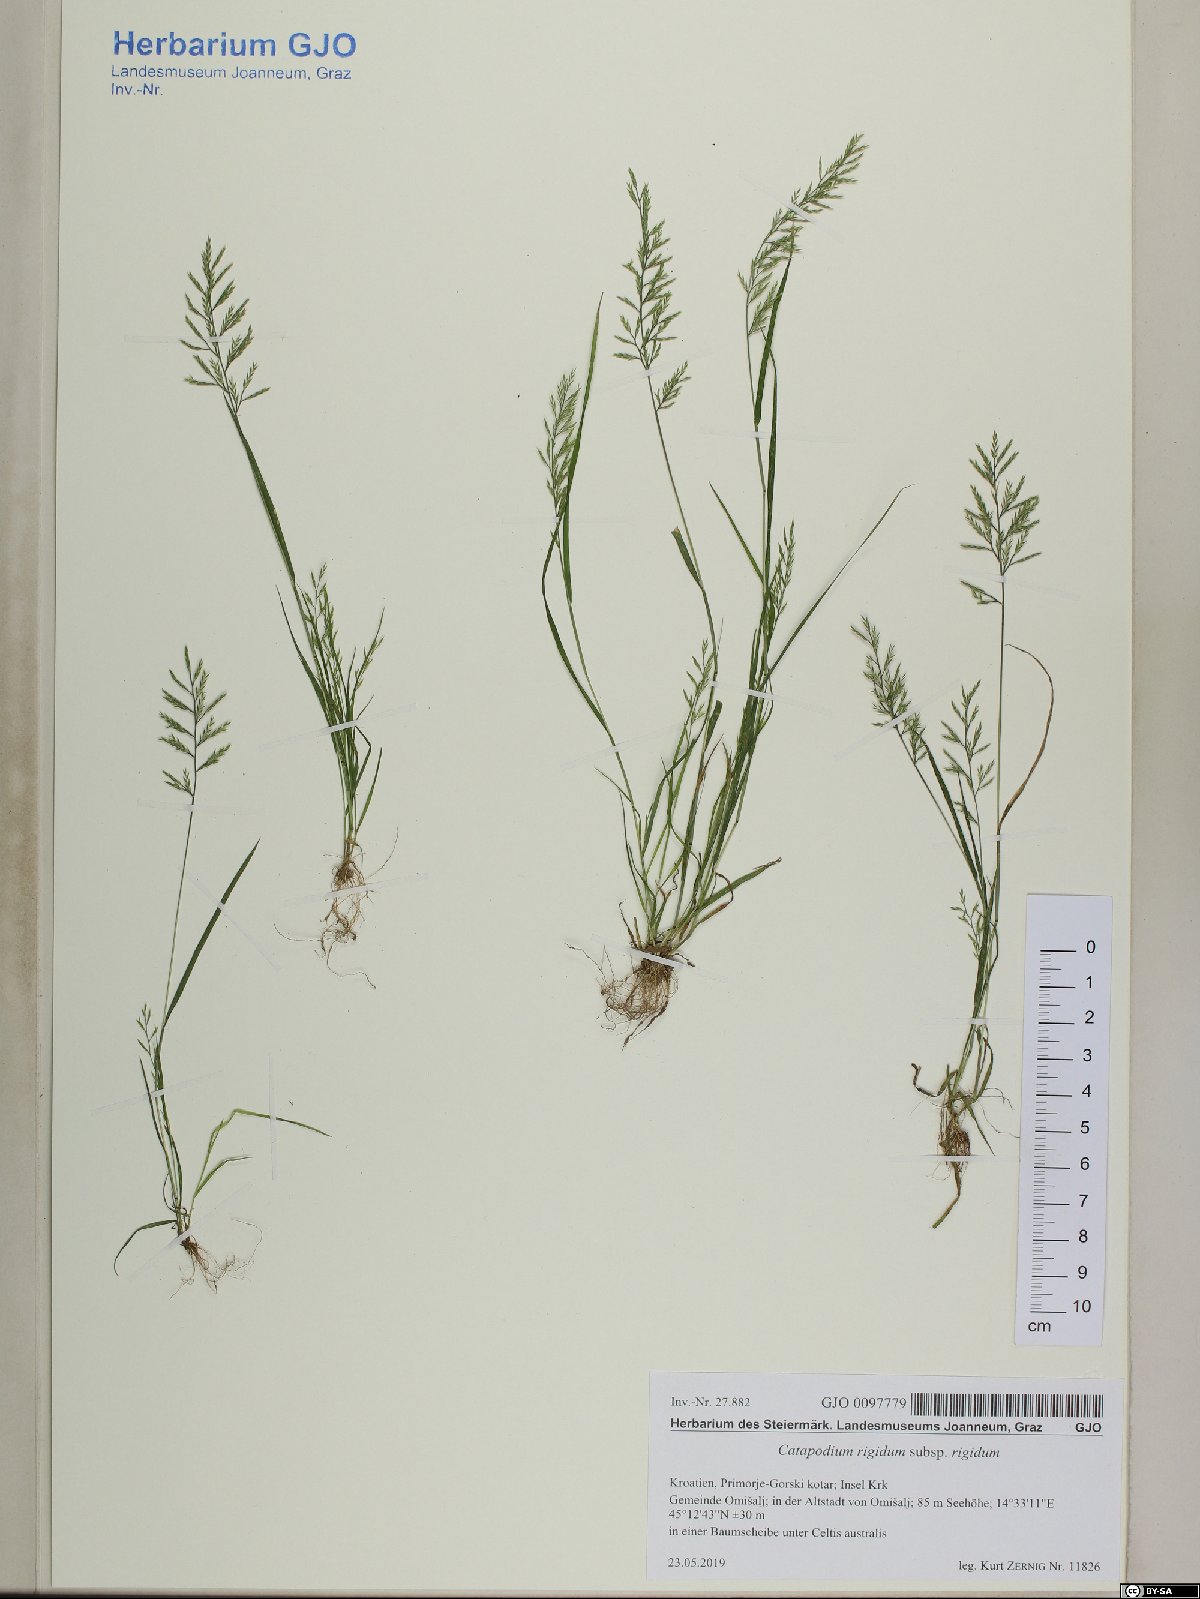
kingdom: Plantae
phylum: Tracheophyta
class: Liliopsida
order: Poales
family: Poaceae
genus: Catapodium
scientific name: Catapodium rigidum
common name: Fern-grass
